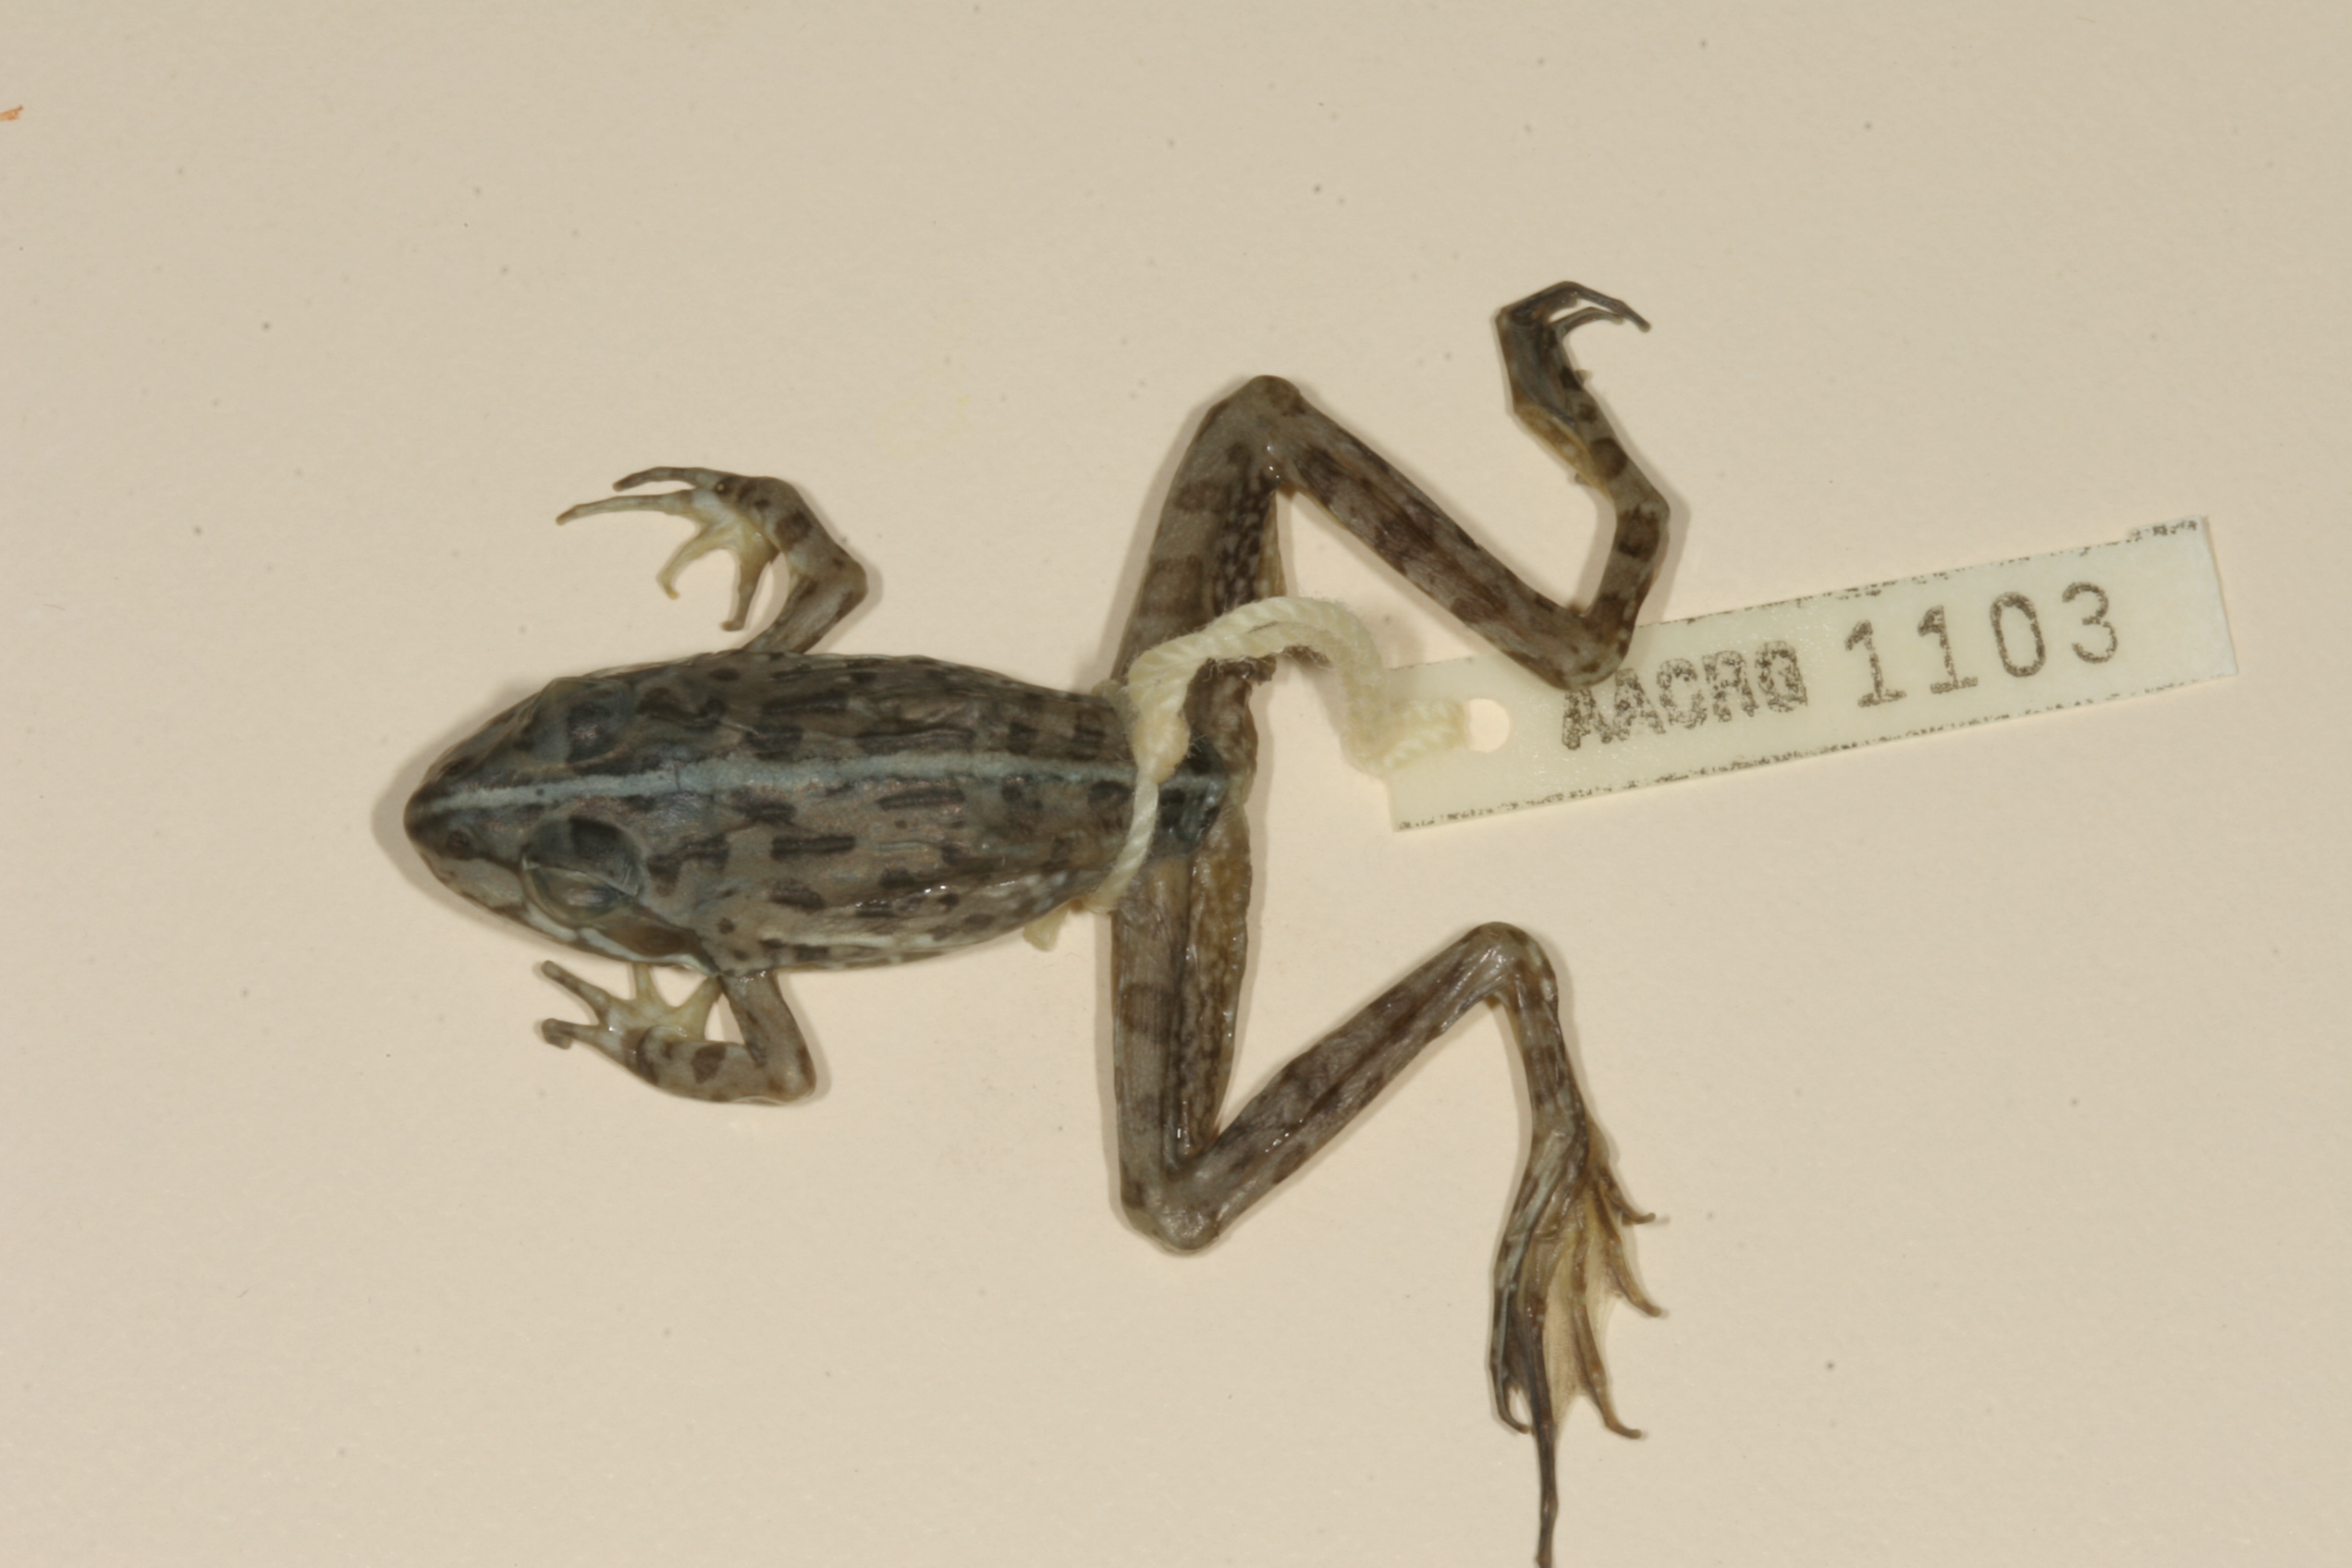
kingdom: Animalia
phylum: Chordata
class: Amphibia
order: Anura
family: Pyxicephalidae
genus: Amietia
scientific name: Amietia delalandii
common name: Delalande's river frog
